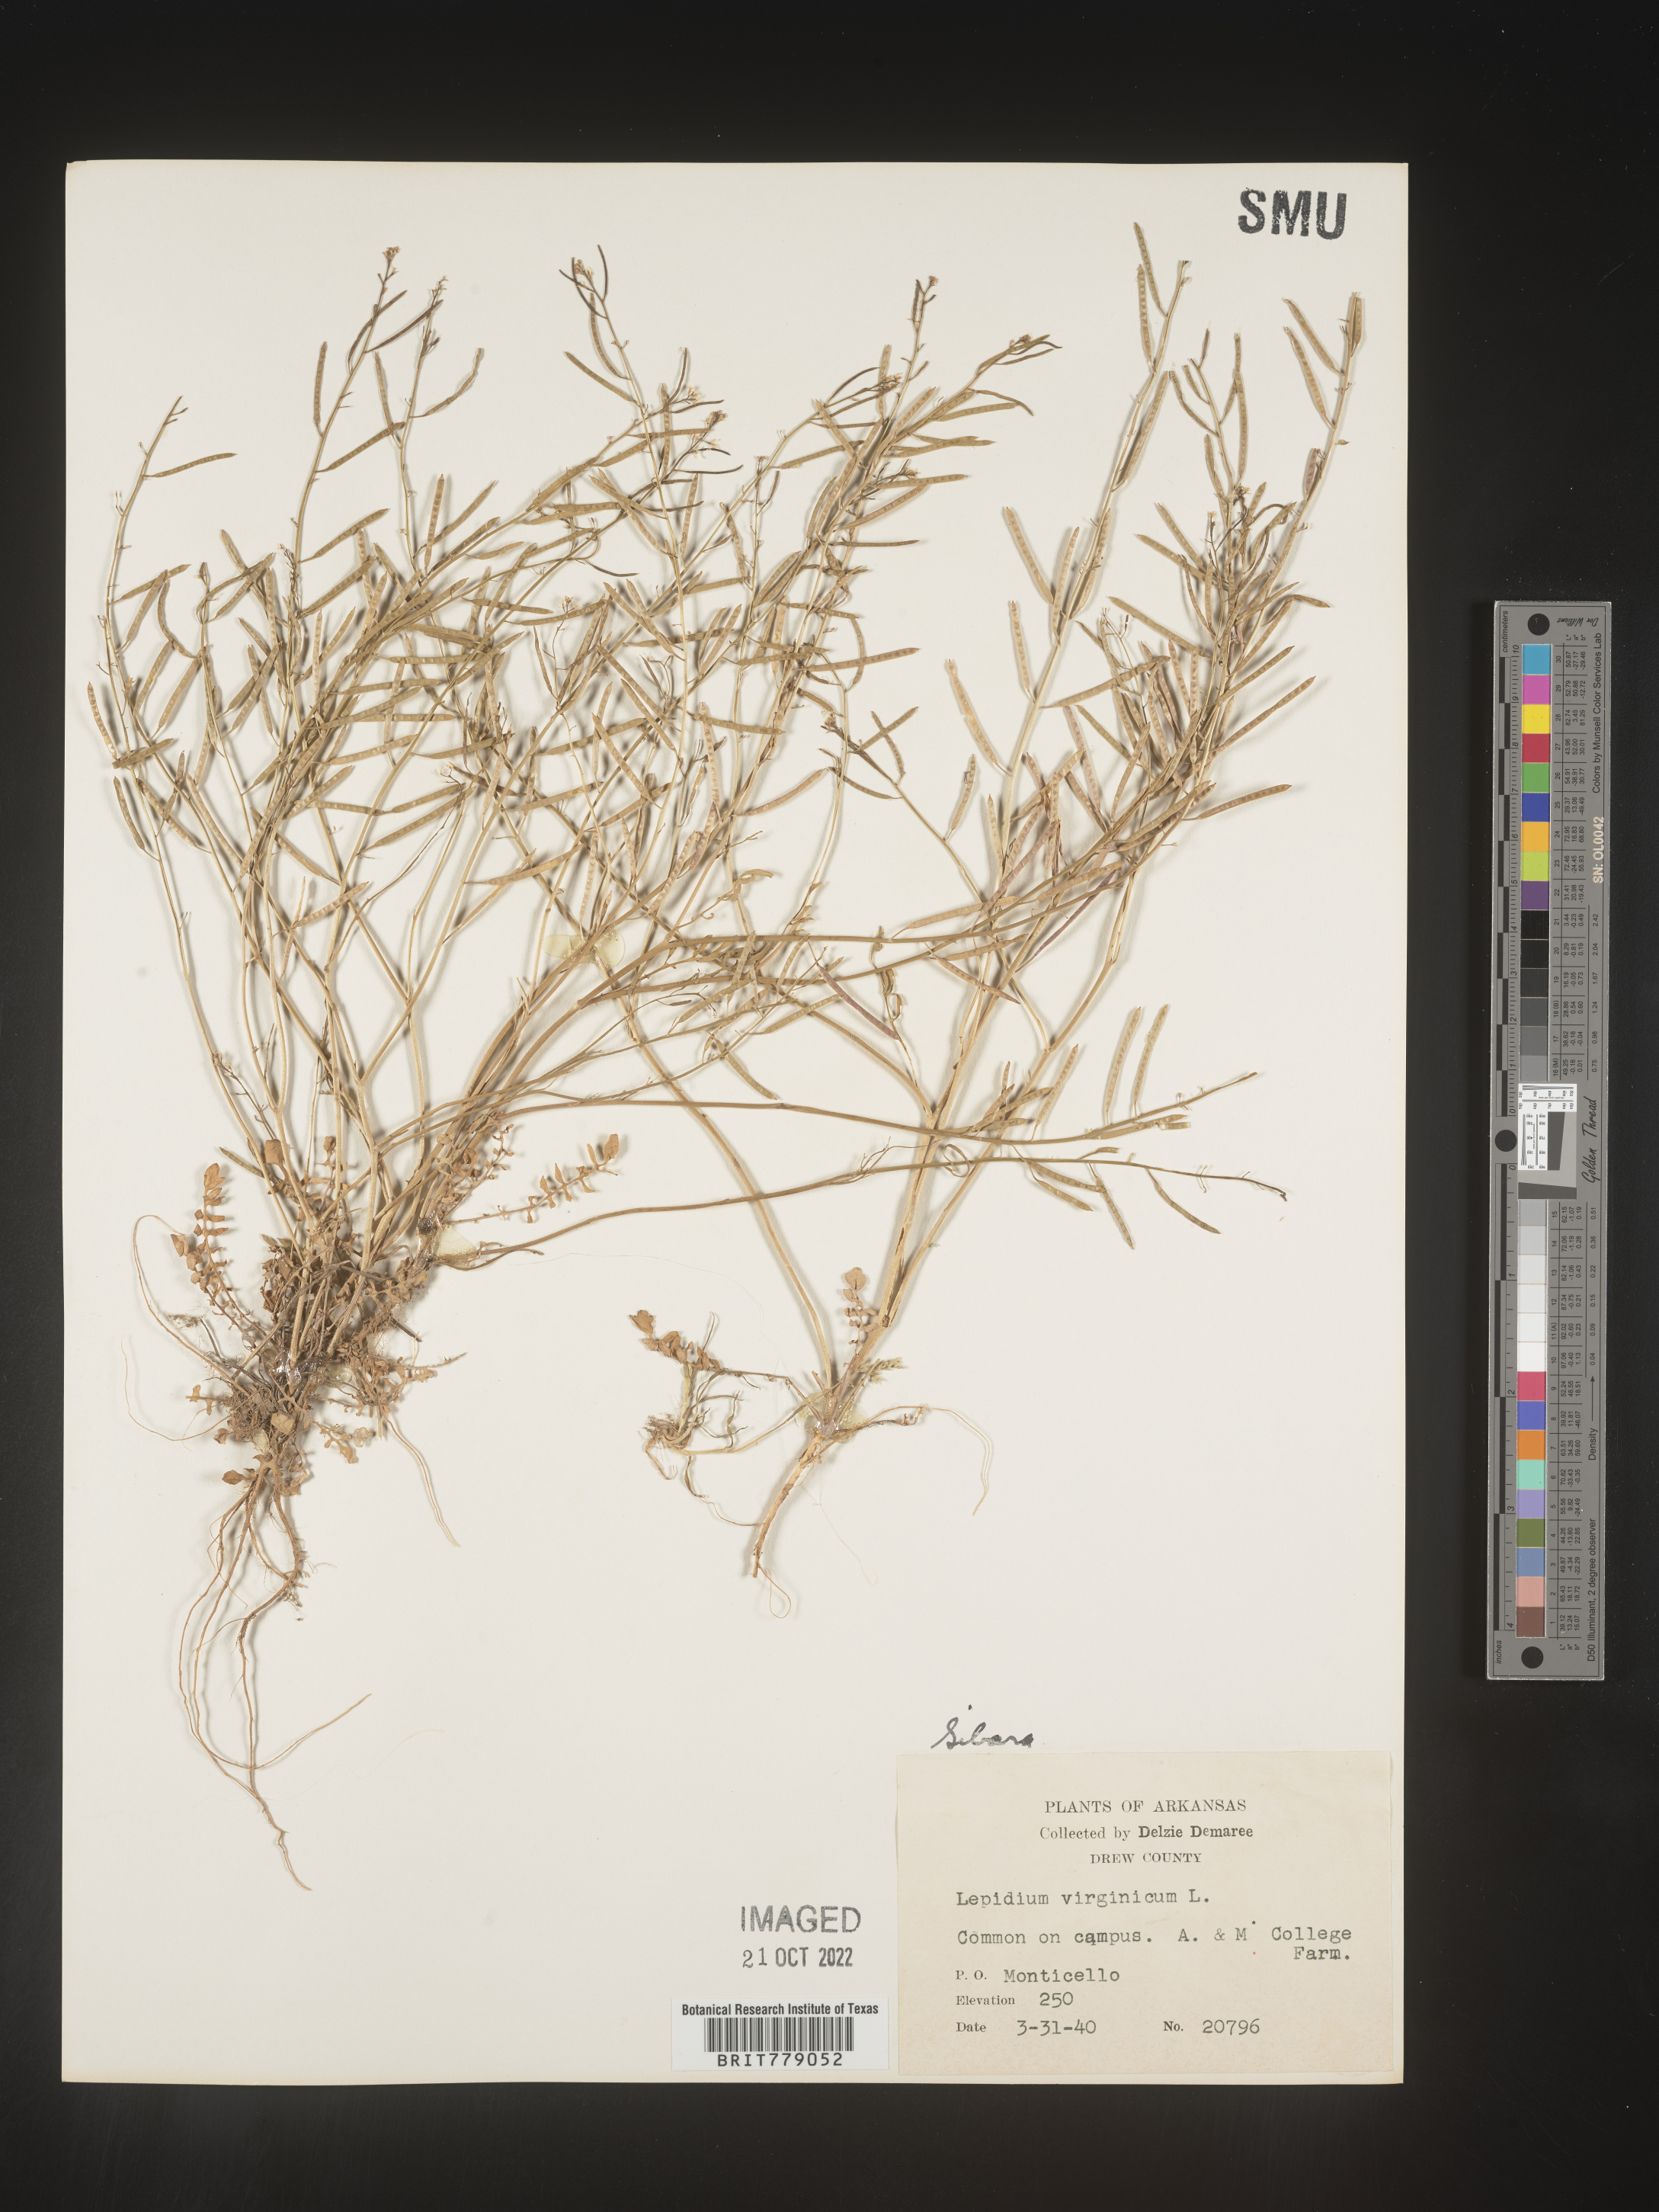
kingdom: Plantae
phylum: Tracheophyta
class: Magnoliopsida
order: Brassicales
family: Brassicaceae
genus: Sibara
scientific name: Sibara
